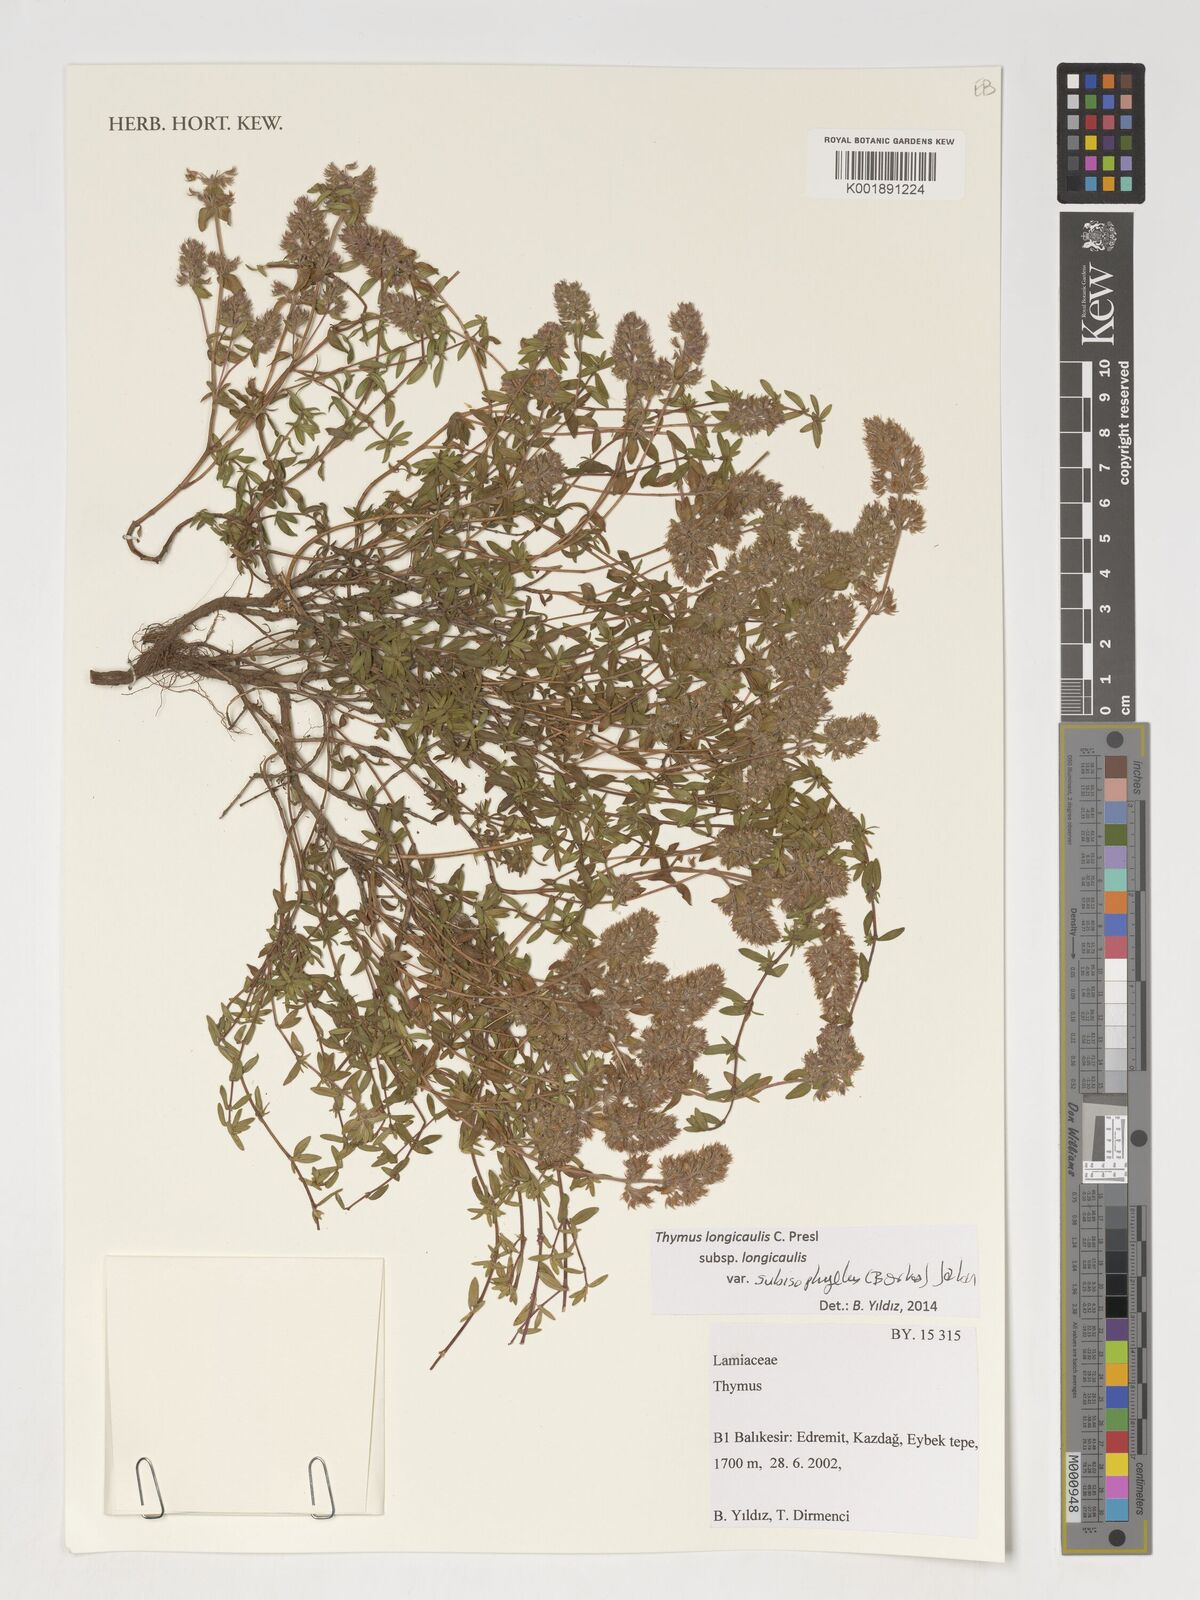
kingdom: Plantae
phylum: Tracheophyta
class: Magnoliopsida
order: Lamiales
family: Lamiaceae
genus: Thymus
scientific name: Thymus
